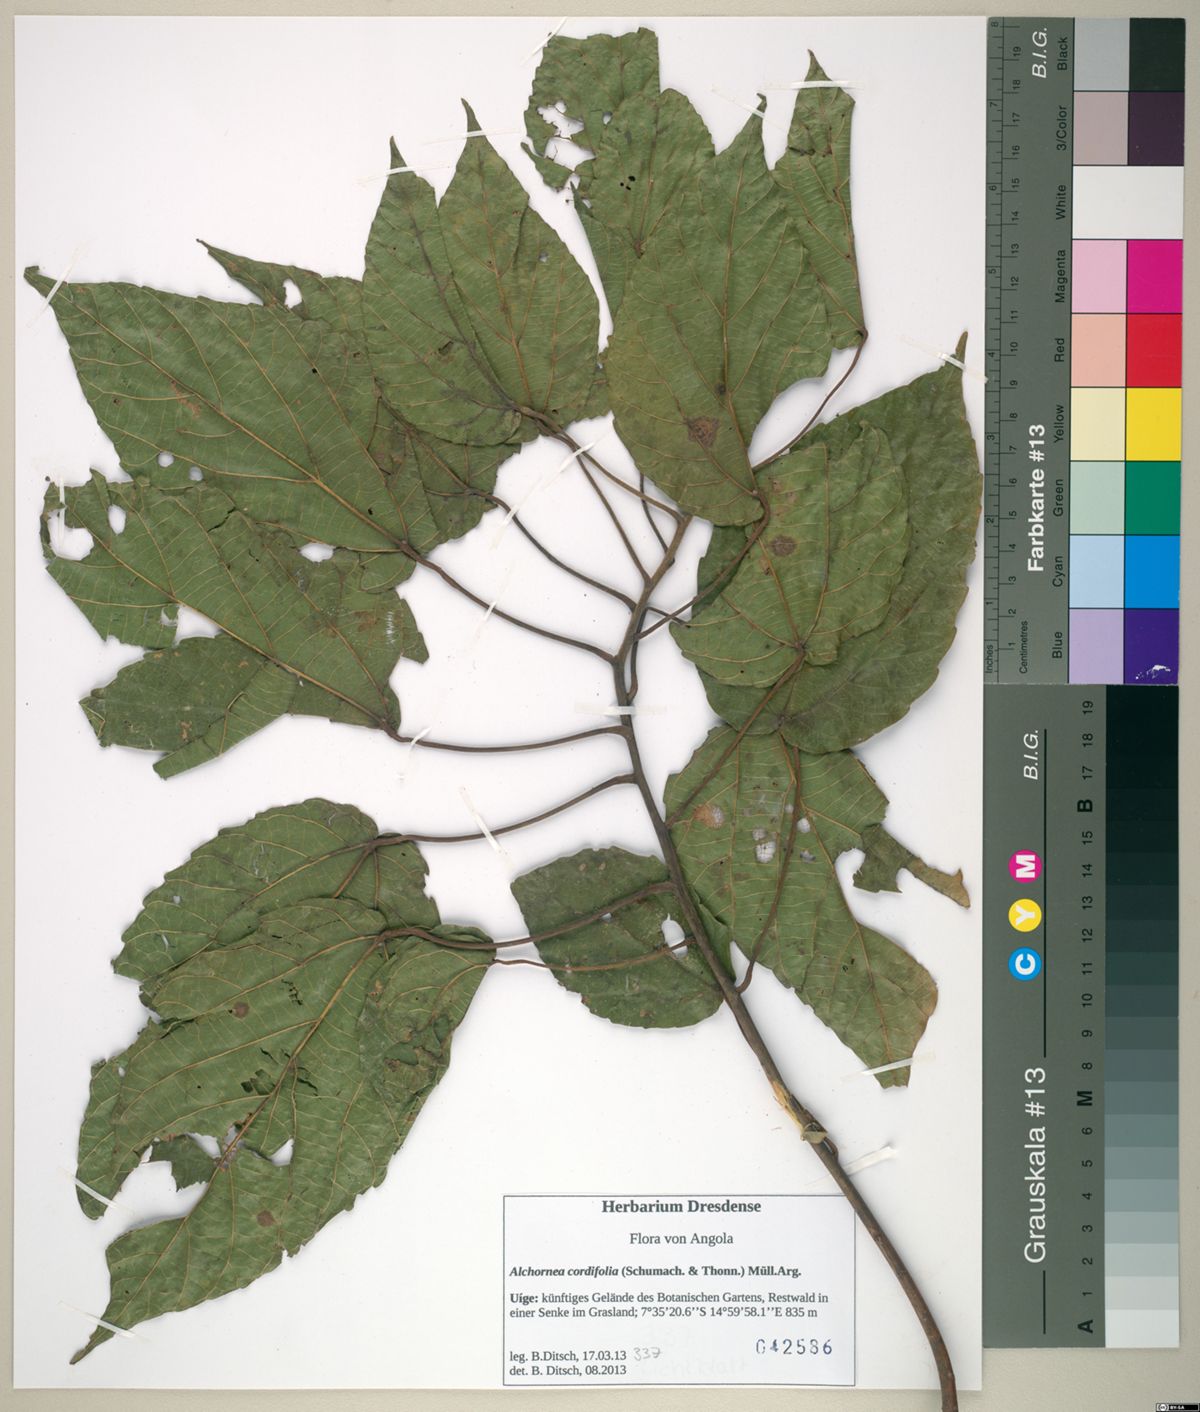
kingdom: Plantae
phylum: Tracheophyta
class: Magnoliopsida
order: Malpighiales
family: Euphorbiaceae
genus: Alchornea
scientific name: Alchornea cordifolia
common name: Christmasbush
